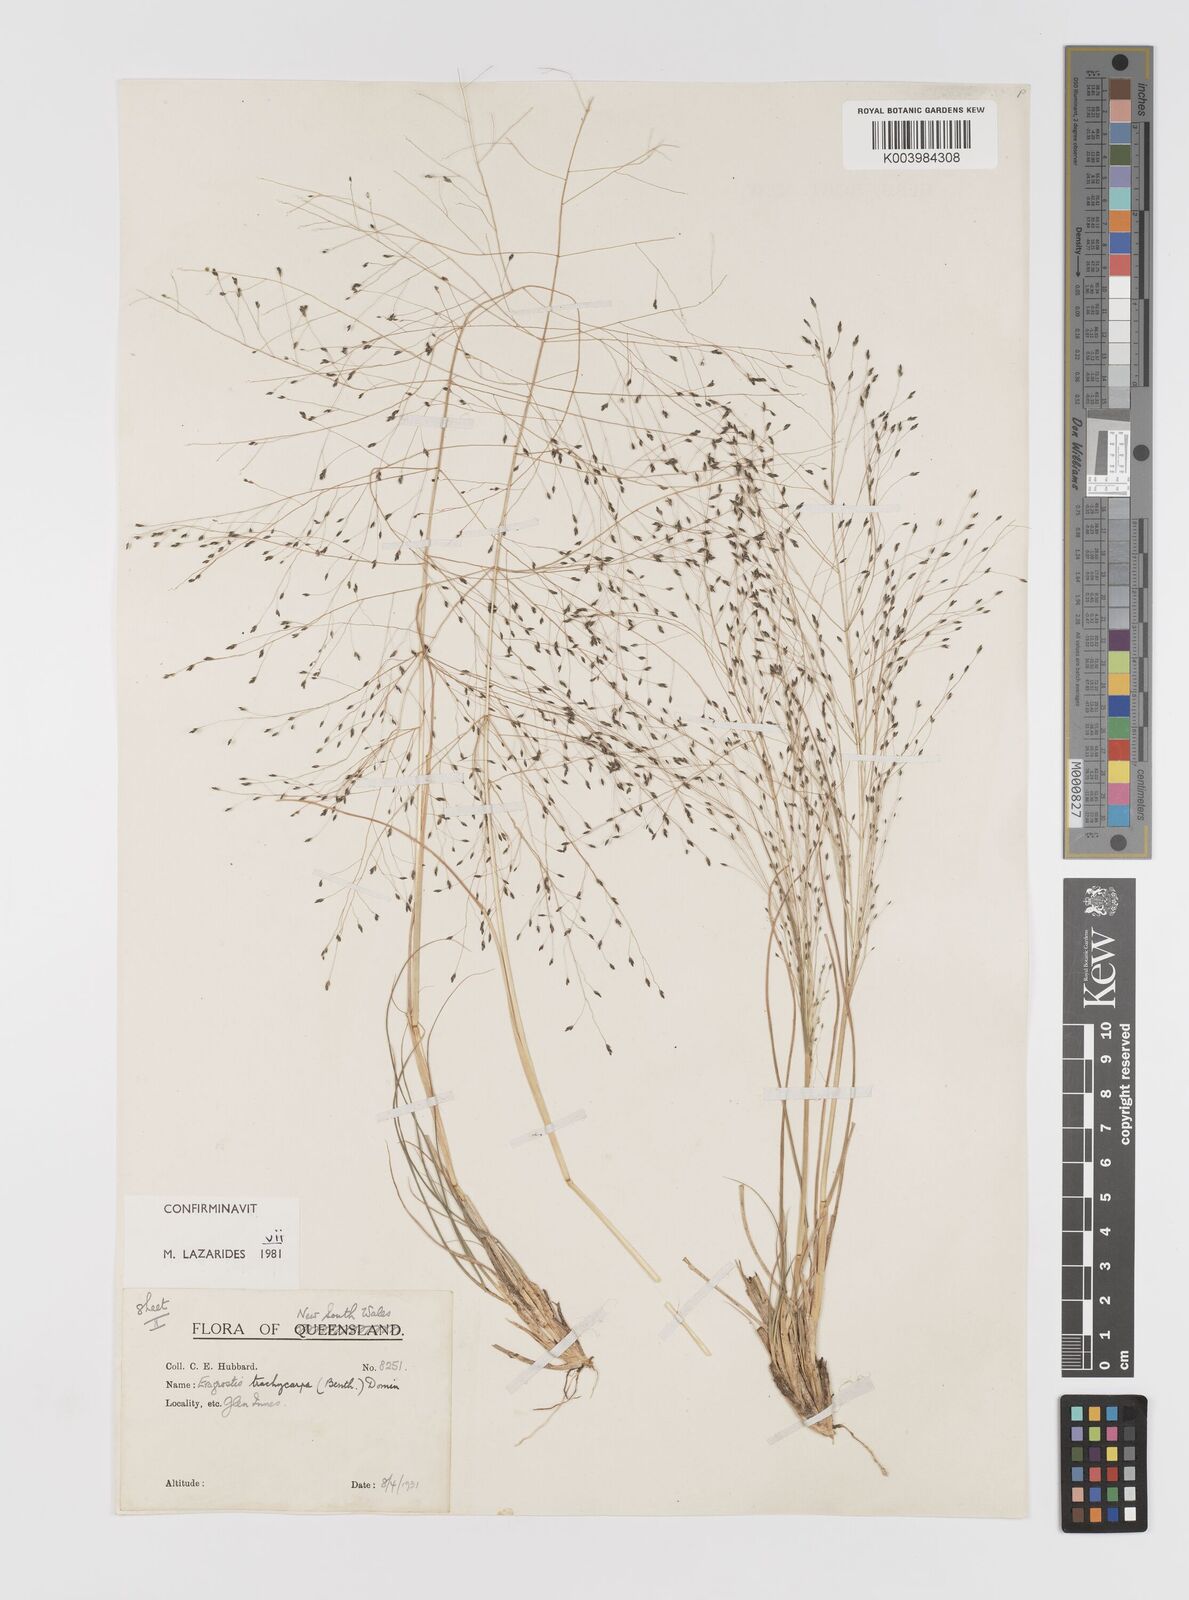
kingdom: Plantae
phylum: Tracheophyta
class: Liliopsida
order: Poales
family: Poaceae
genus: Eragrostis
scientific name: Eragrostis trachycarpa
